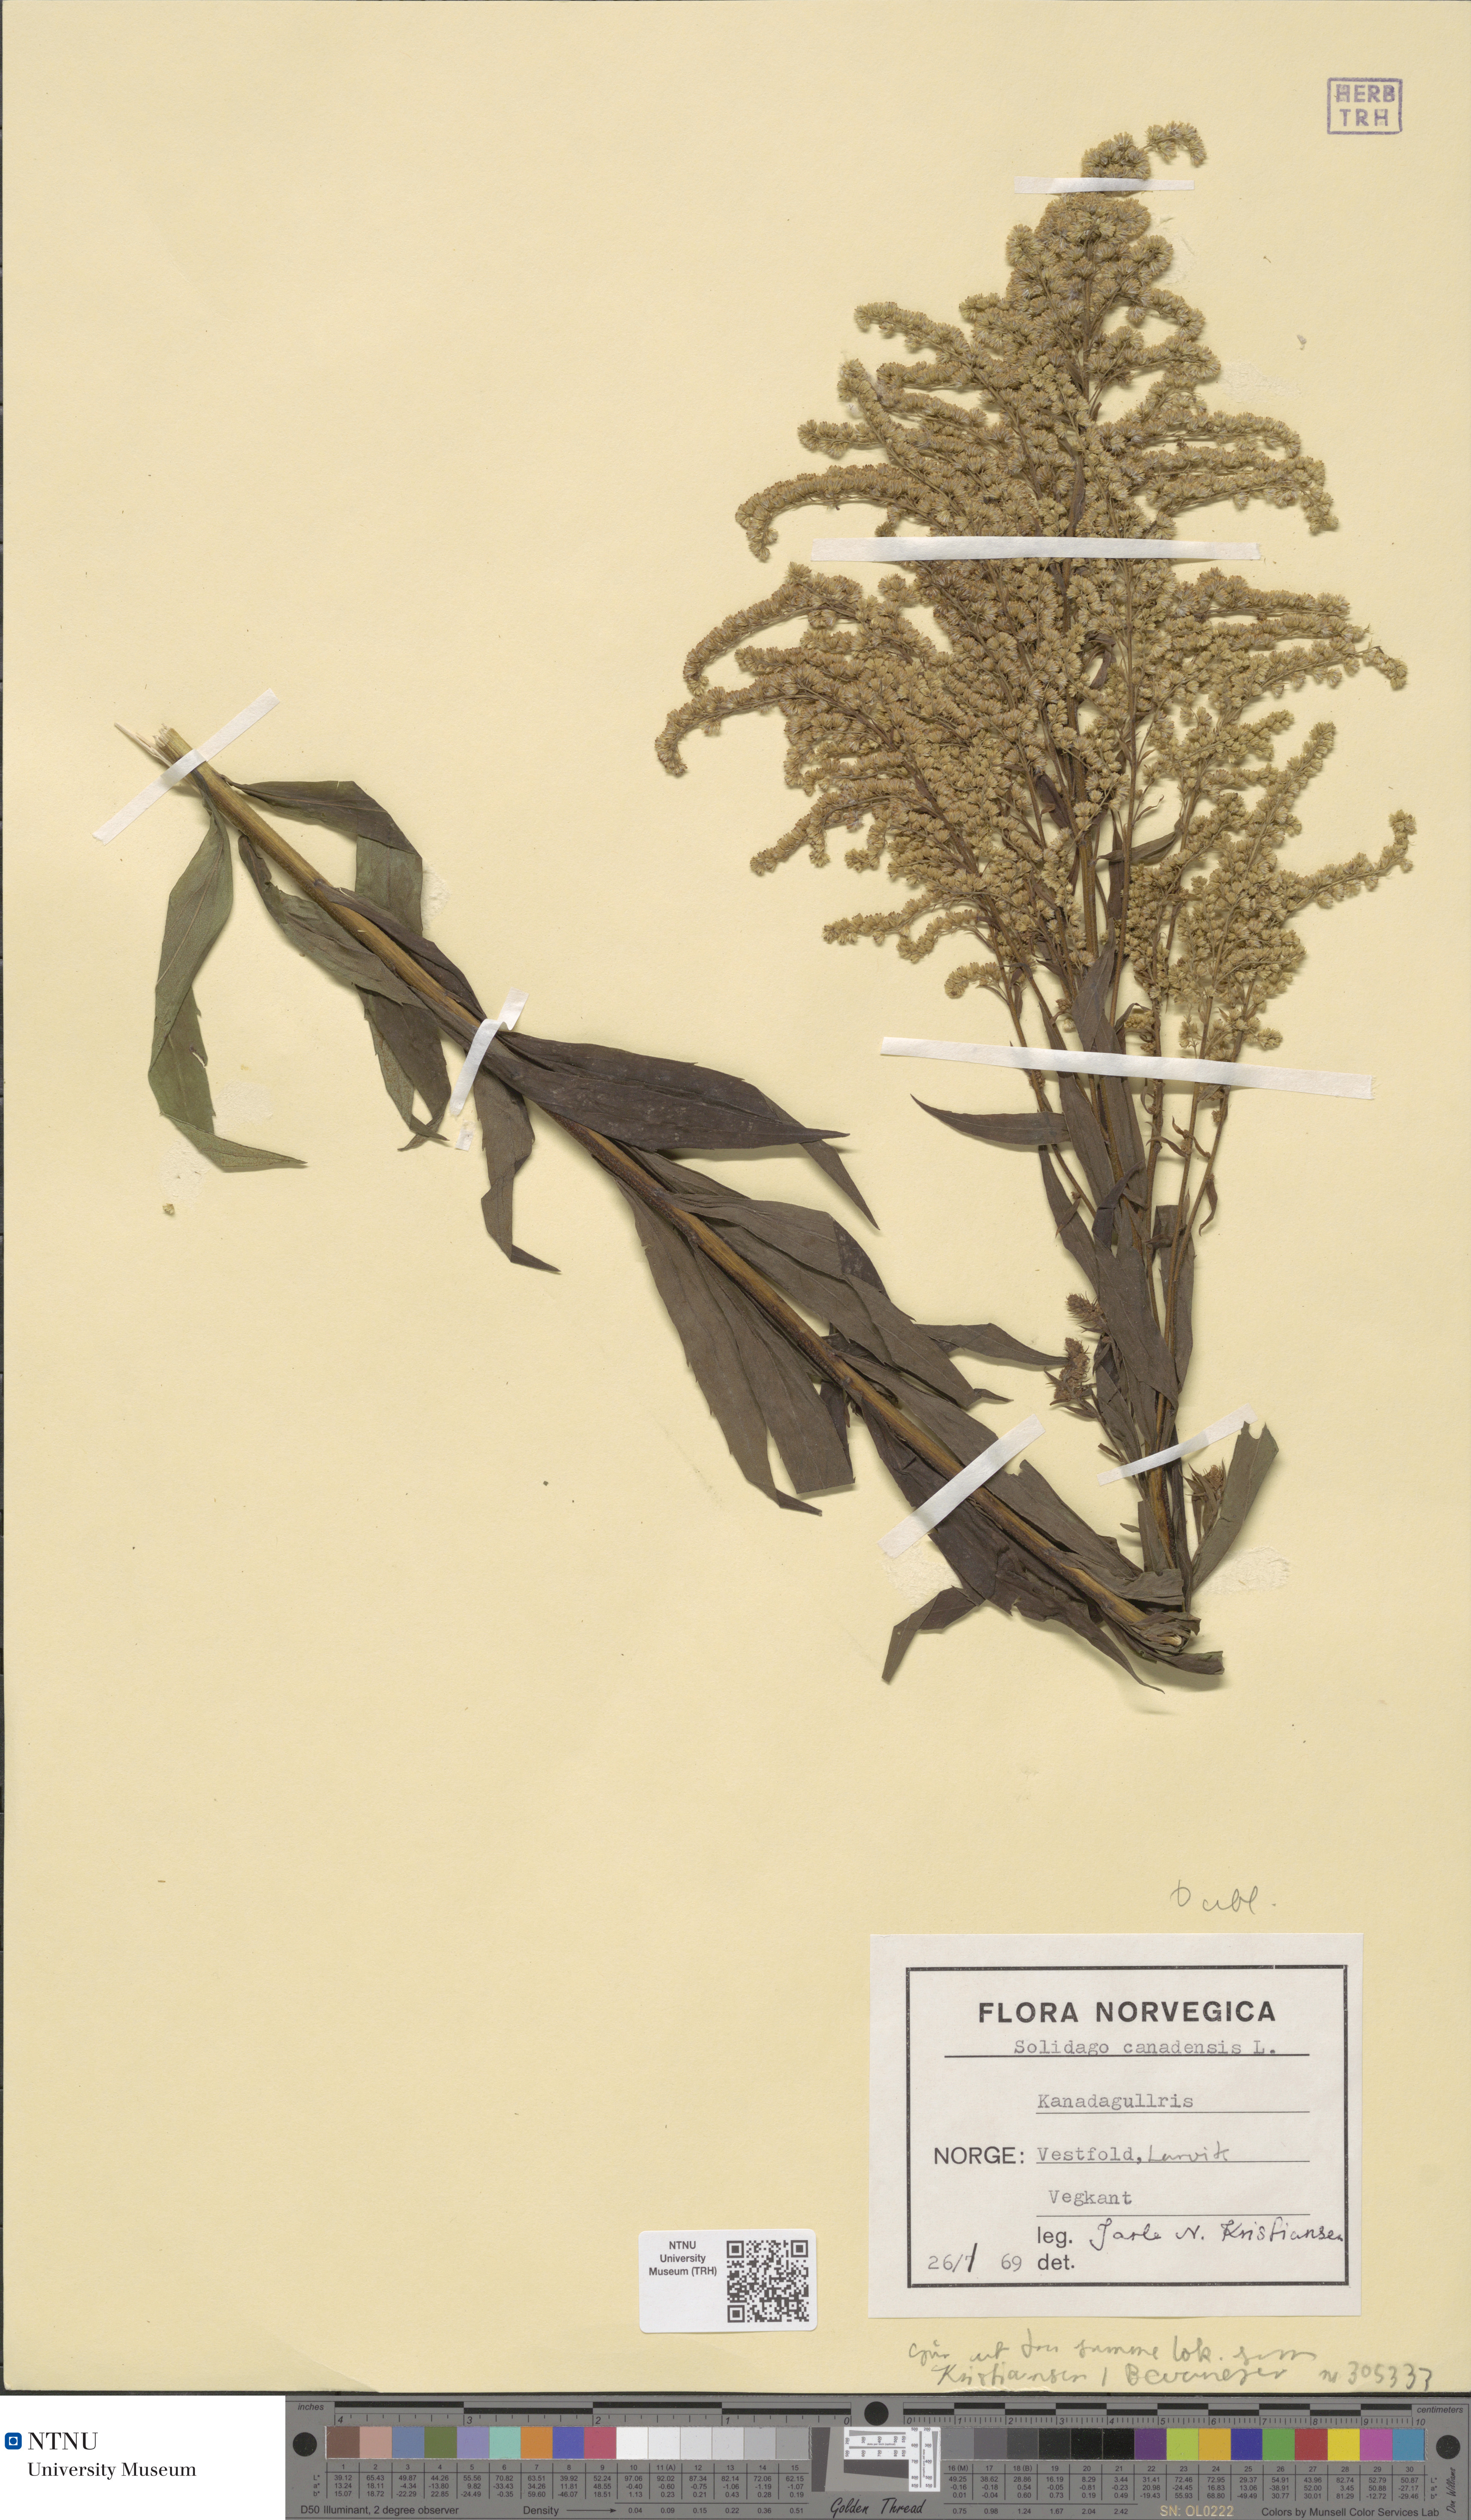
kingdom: Plantae
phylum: Tracheophyta
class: Magnoliopsida
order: Asterales
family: Asteraceae
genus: Solidago
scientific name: Solidago canadensis
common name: Canada goldenrod
